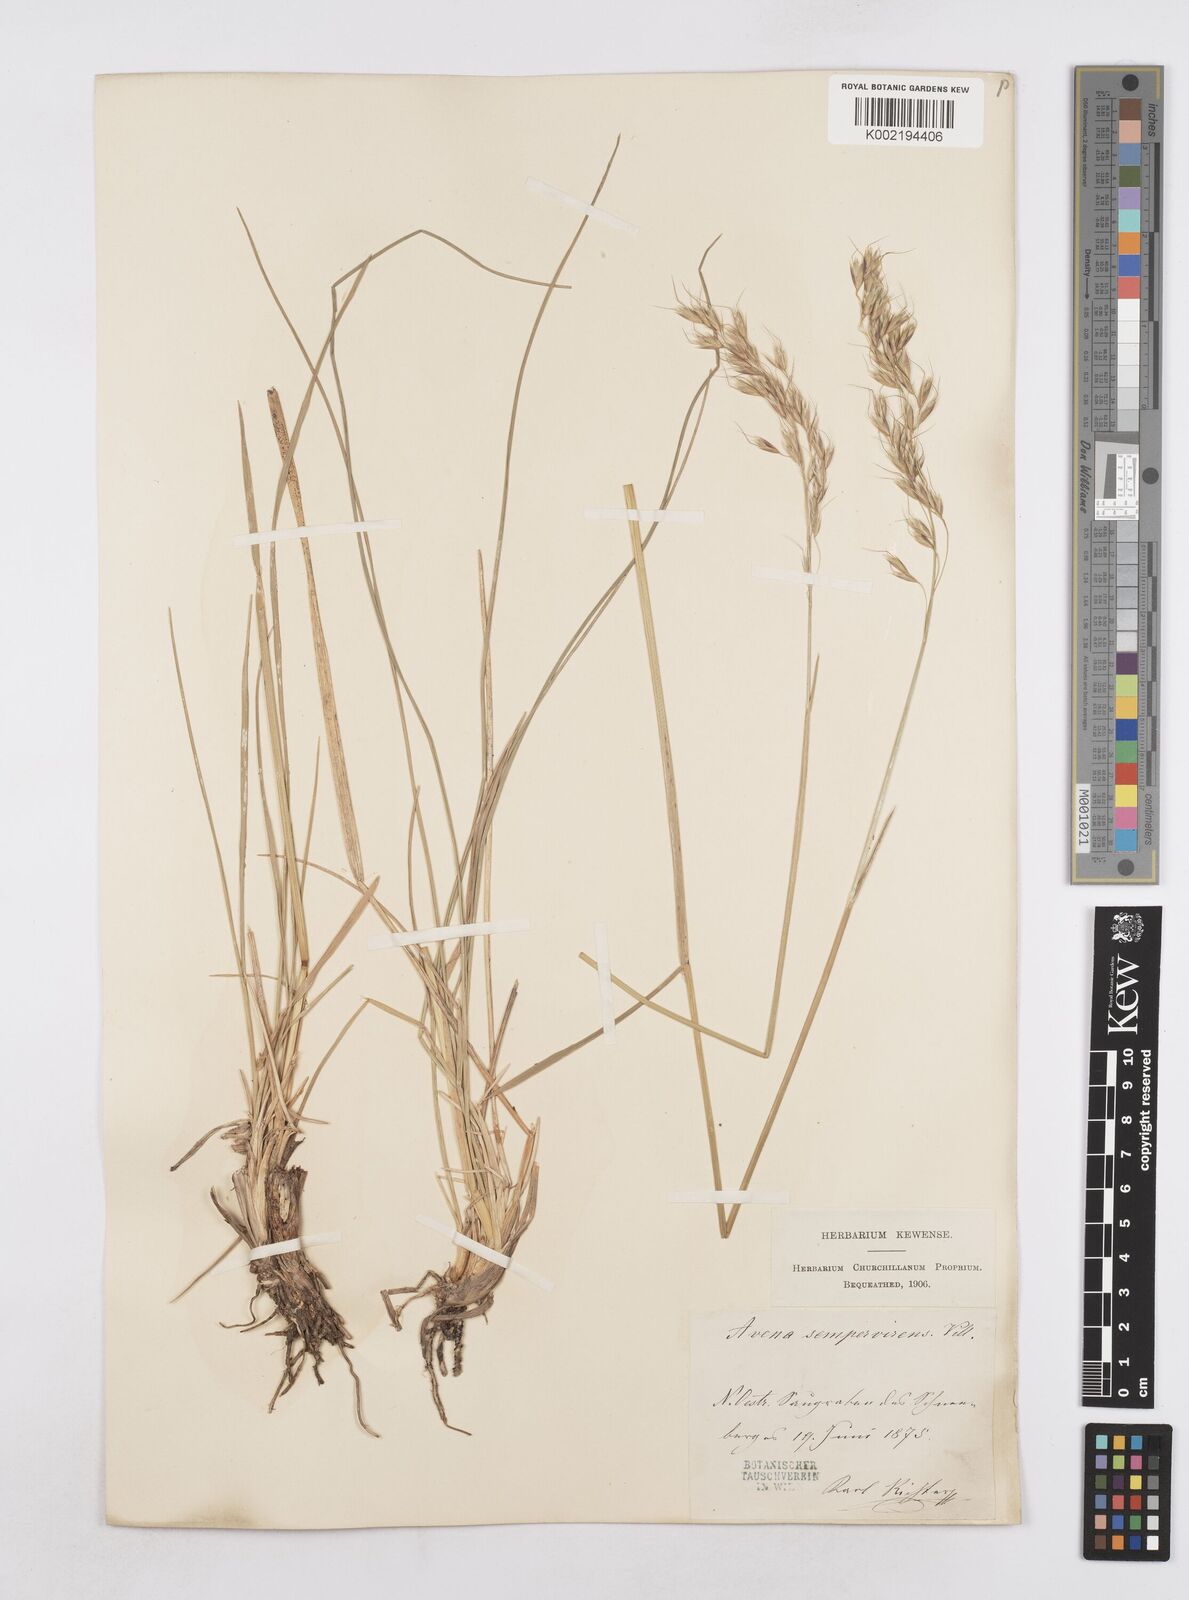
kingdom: Plantae
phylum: Tracheophyta
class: Liliopsida
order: Poales
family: Poaceae
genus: Helictotrichon
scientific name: Helictotrichon
